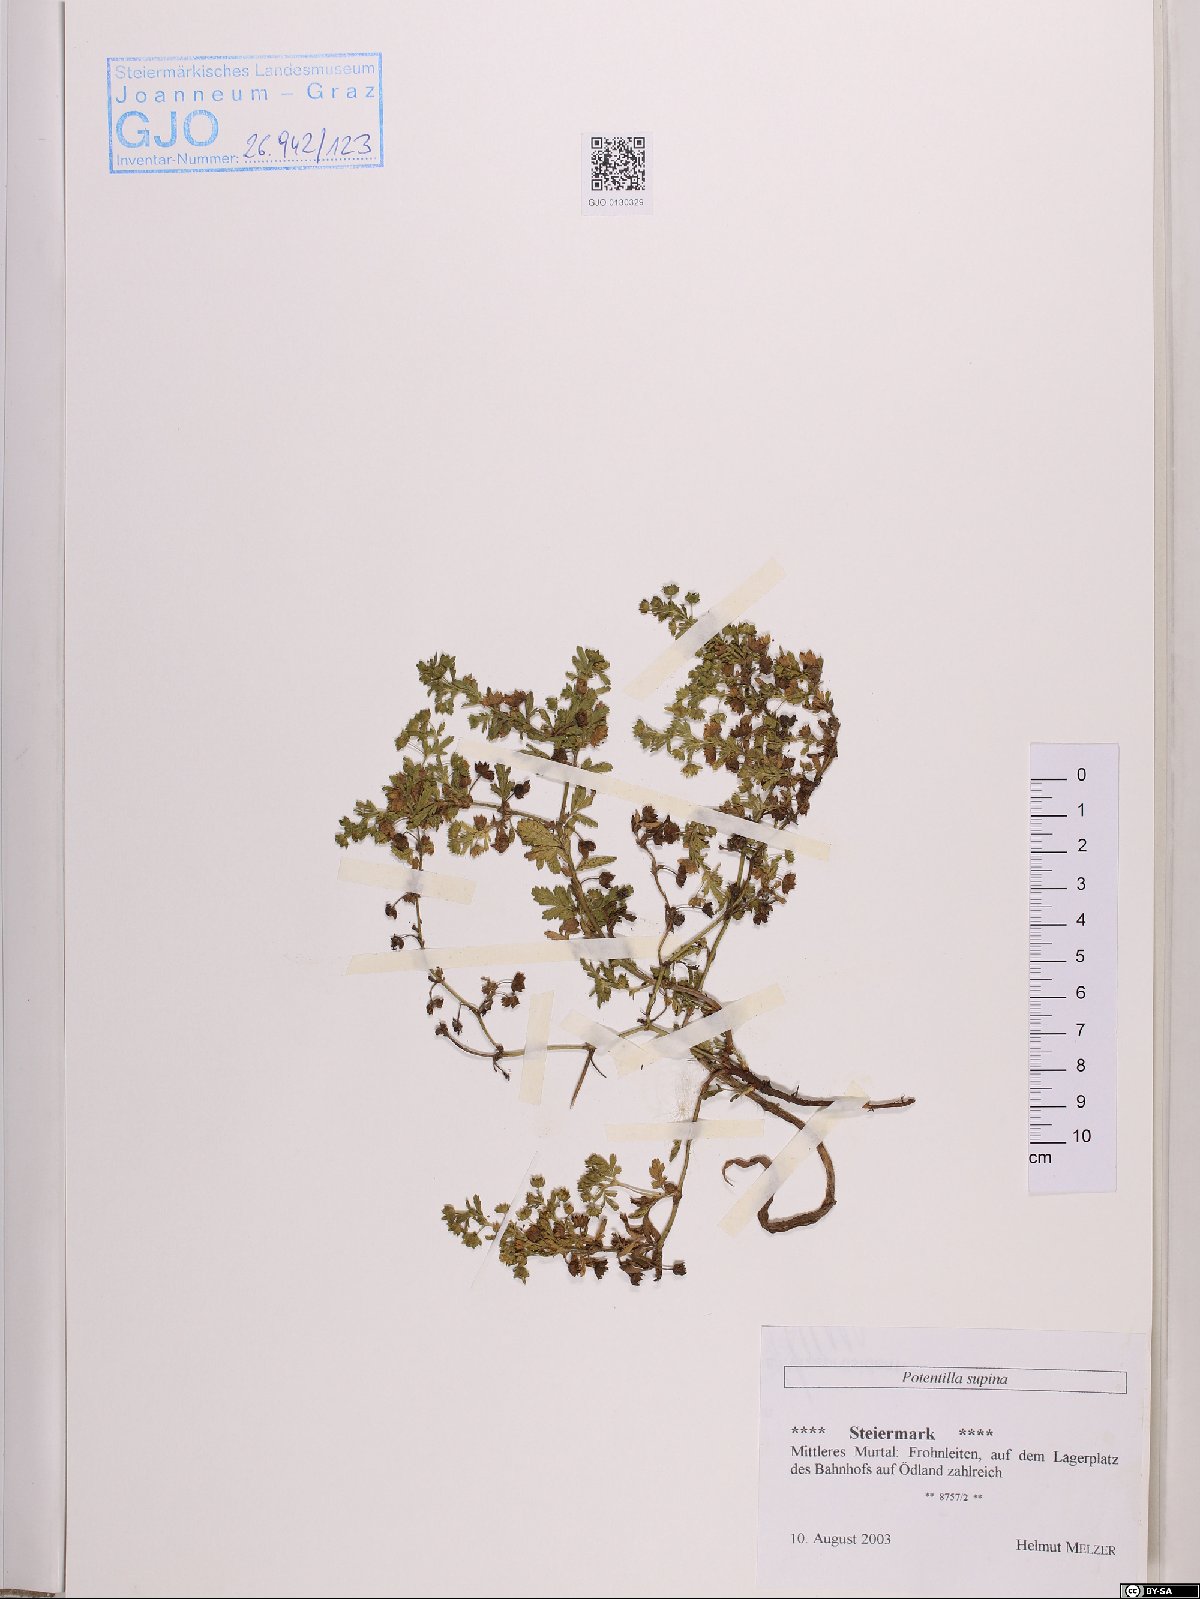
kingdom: Plantae
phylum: Tracheophyta
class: Magnoliopsida
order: Rosales
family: Rosaceae
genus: Potentilla
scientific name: Potentilla supina
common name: Prostrate cinquefoil
